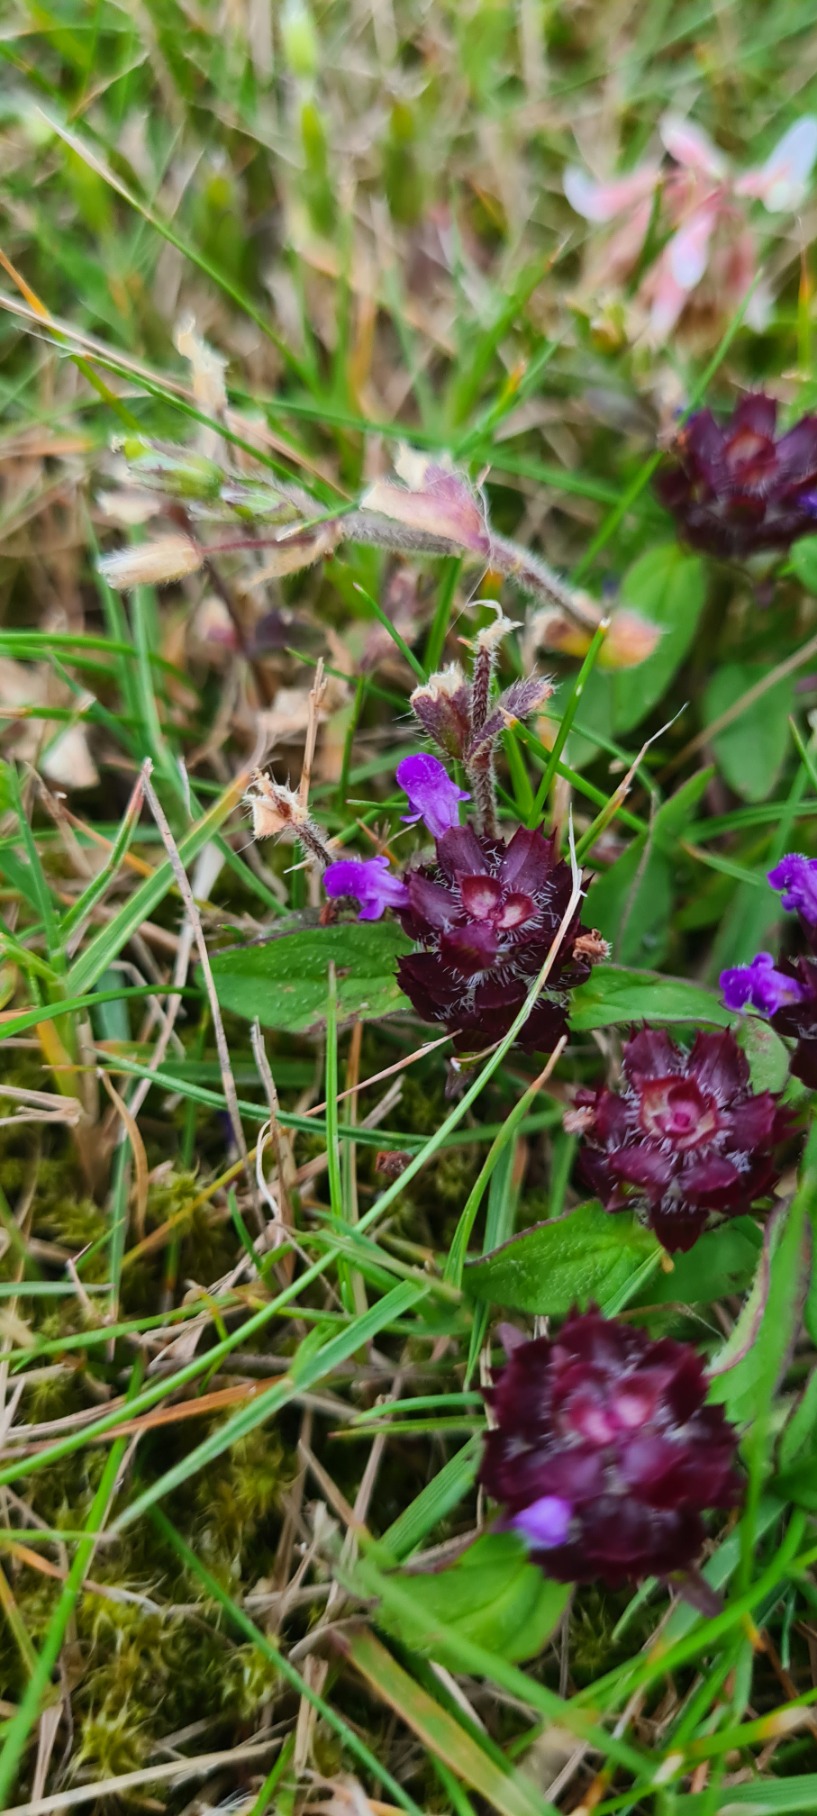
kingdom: Plantae
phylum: Tracheophyta
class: Magnoliopsida
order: Lamiales
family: Lamiaceae
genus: Prunella
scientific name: Prunella vulgaris
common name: Almindelig brunelle
